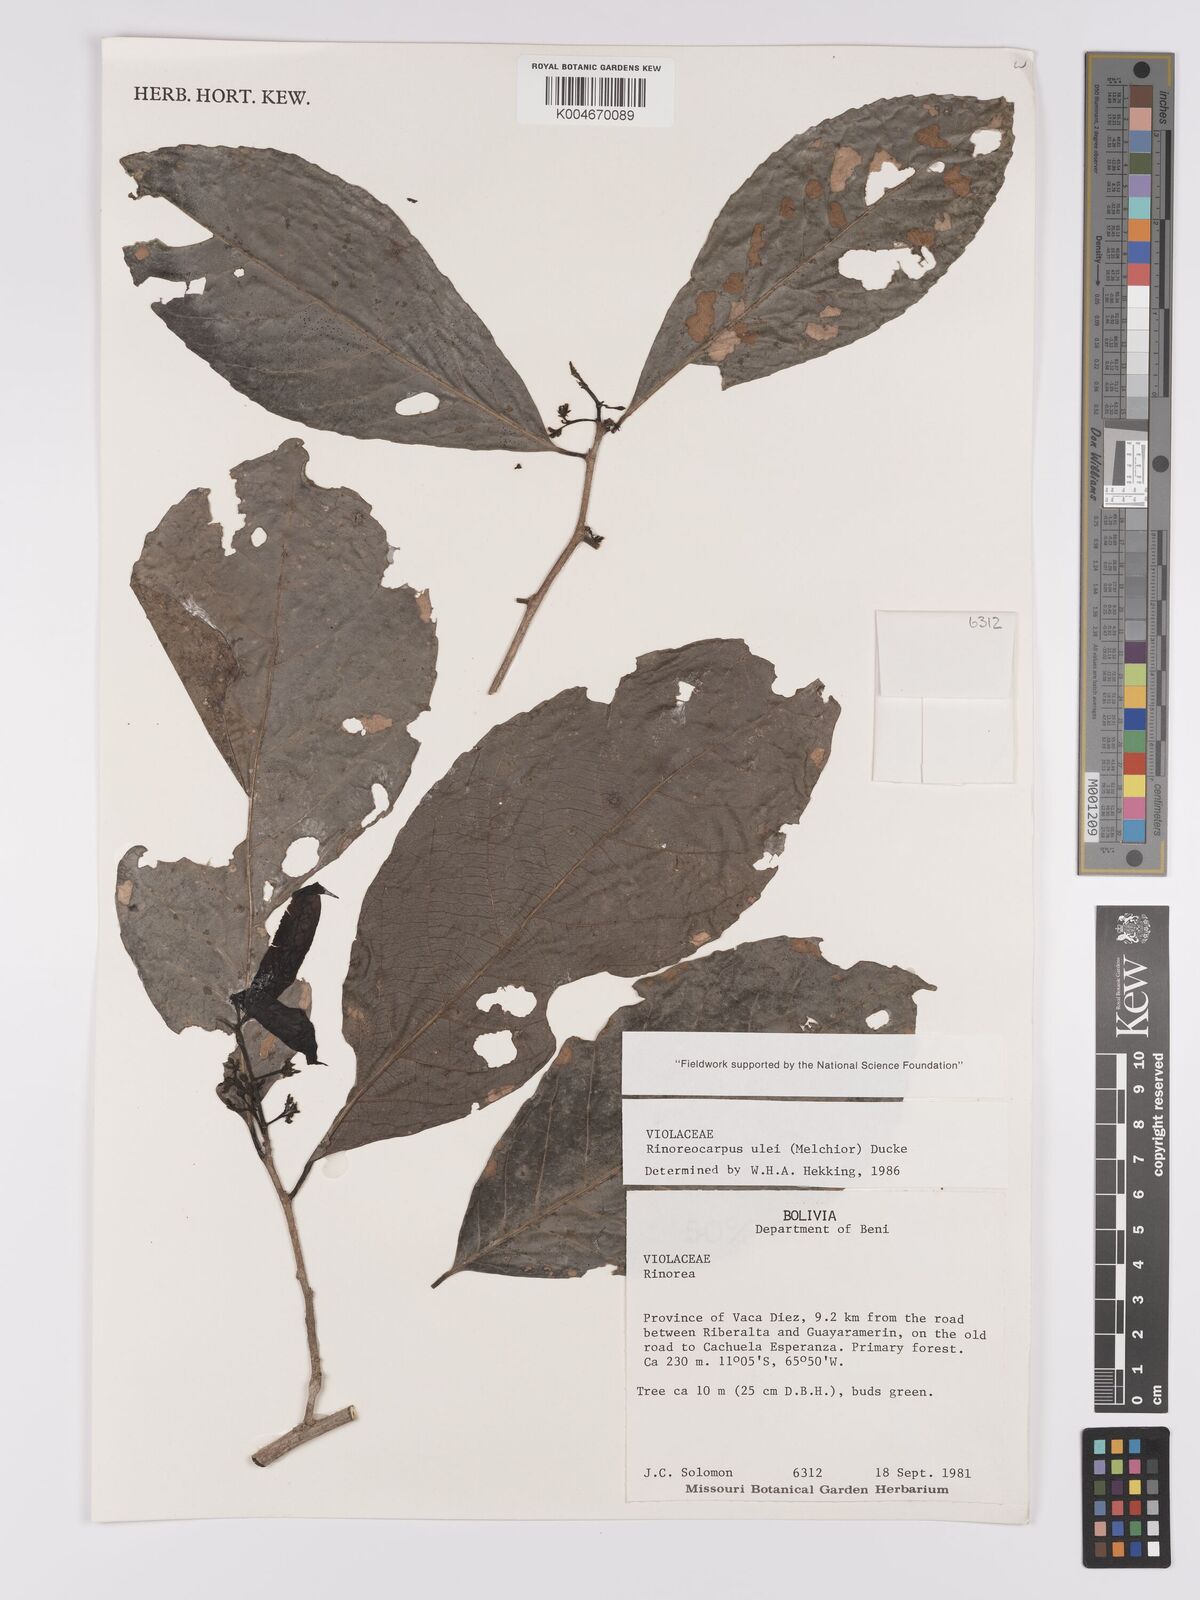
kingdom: Plantae
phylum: Tracheophyta
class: Magnoliopsida
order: Malpighiales
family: Violaceae
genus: Rinoreocarpus
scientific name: Rinoreocarpus ulei
